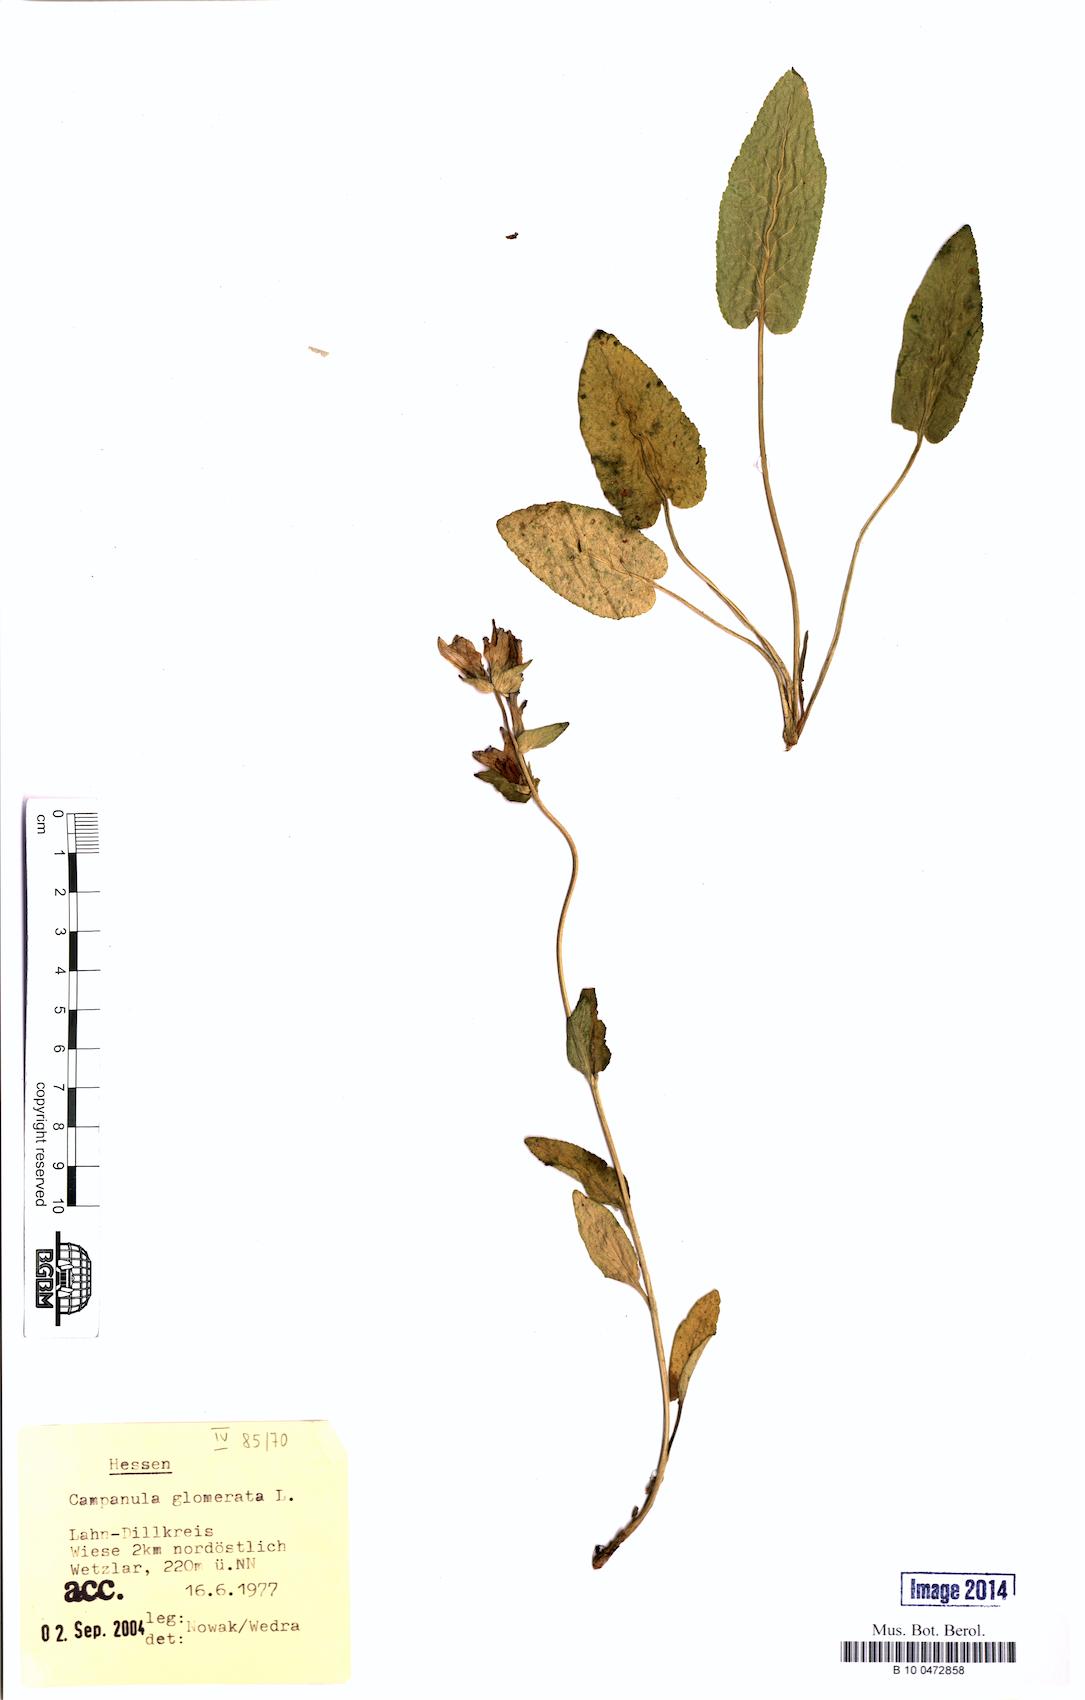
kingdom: Plantae
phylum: Tracheophyta
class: Magnoliopsida
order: Asterales
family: Campanulaceae
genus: Campanula
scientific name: Campanula glomerata
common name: Clustered bellflower
